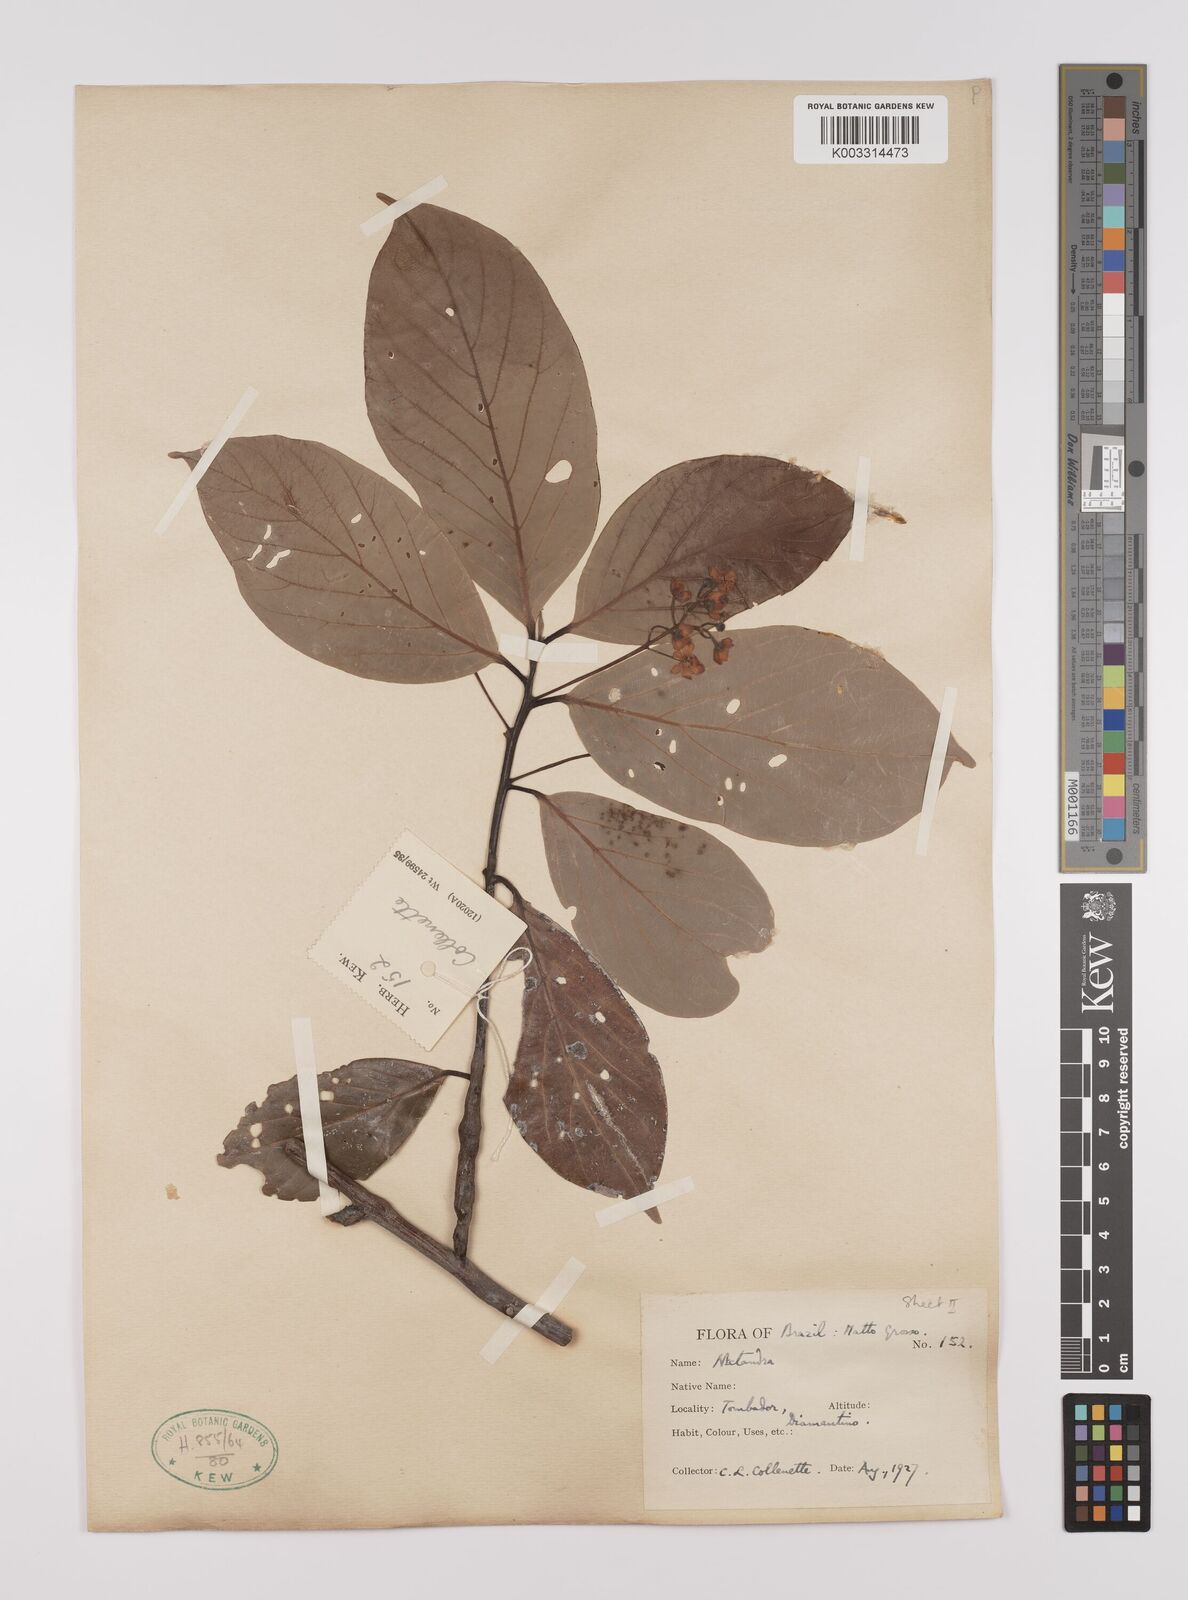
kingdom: Plantae
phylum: Tracheophyta
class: Magnoliopsida
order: Laurales
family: Lauraceae
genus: Nectandra
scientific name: Nectandra leucantha
